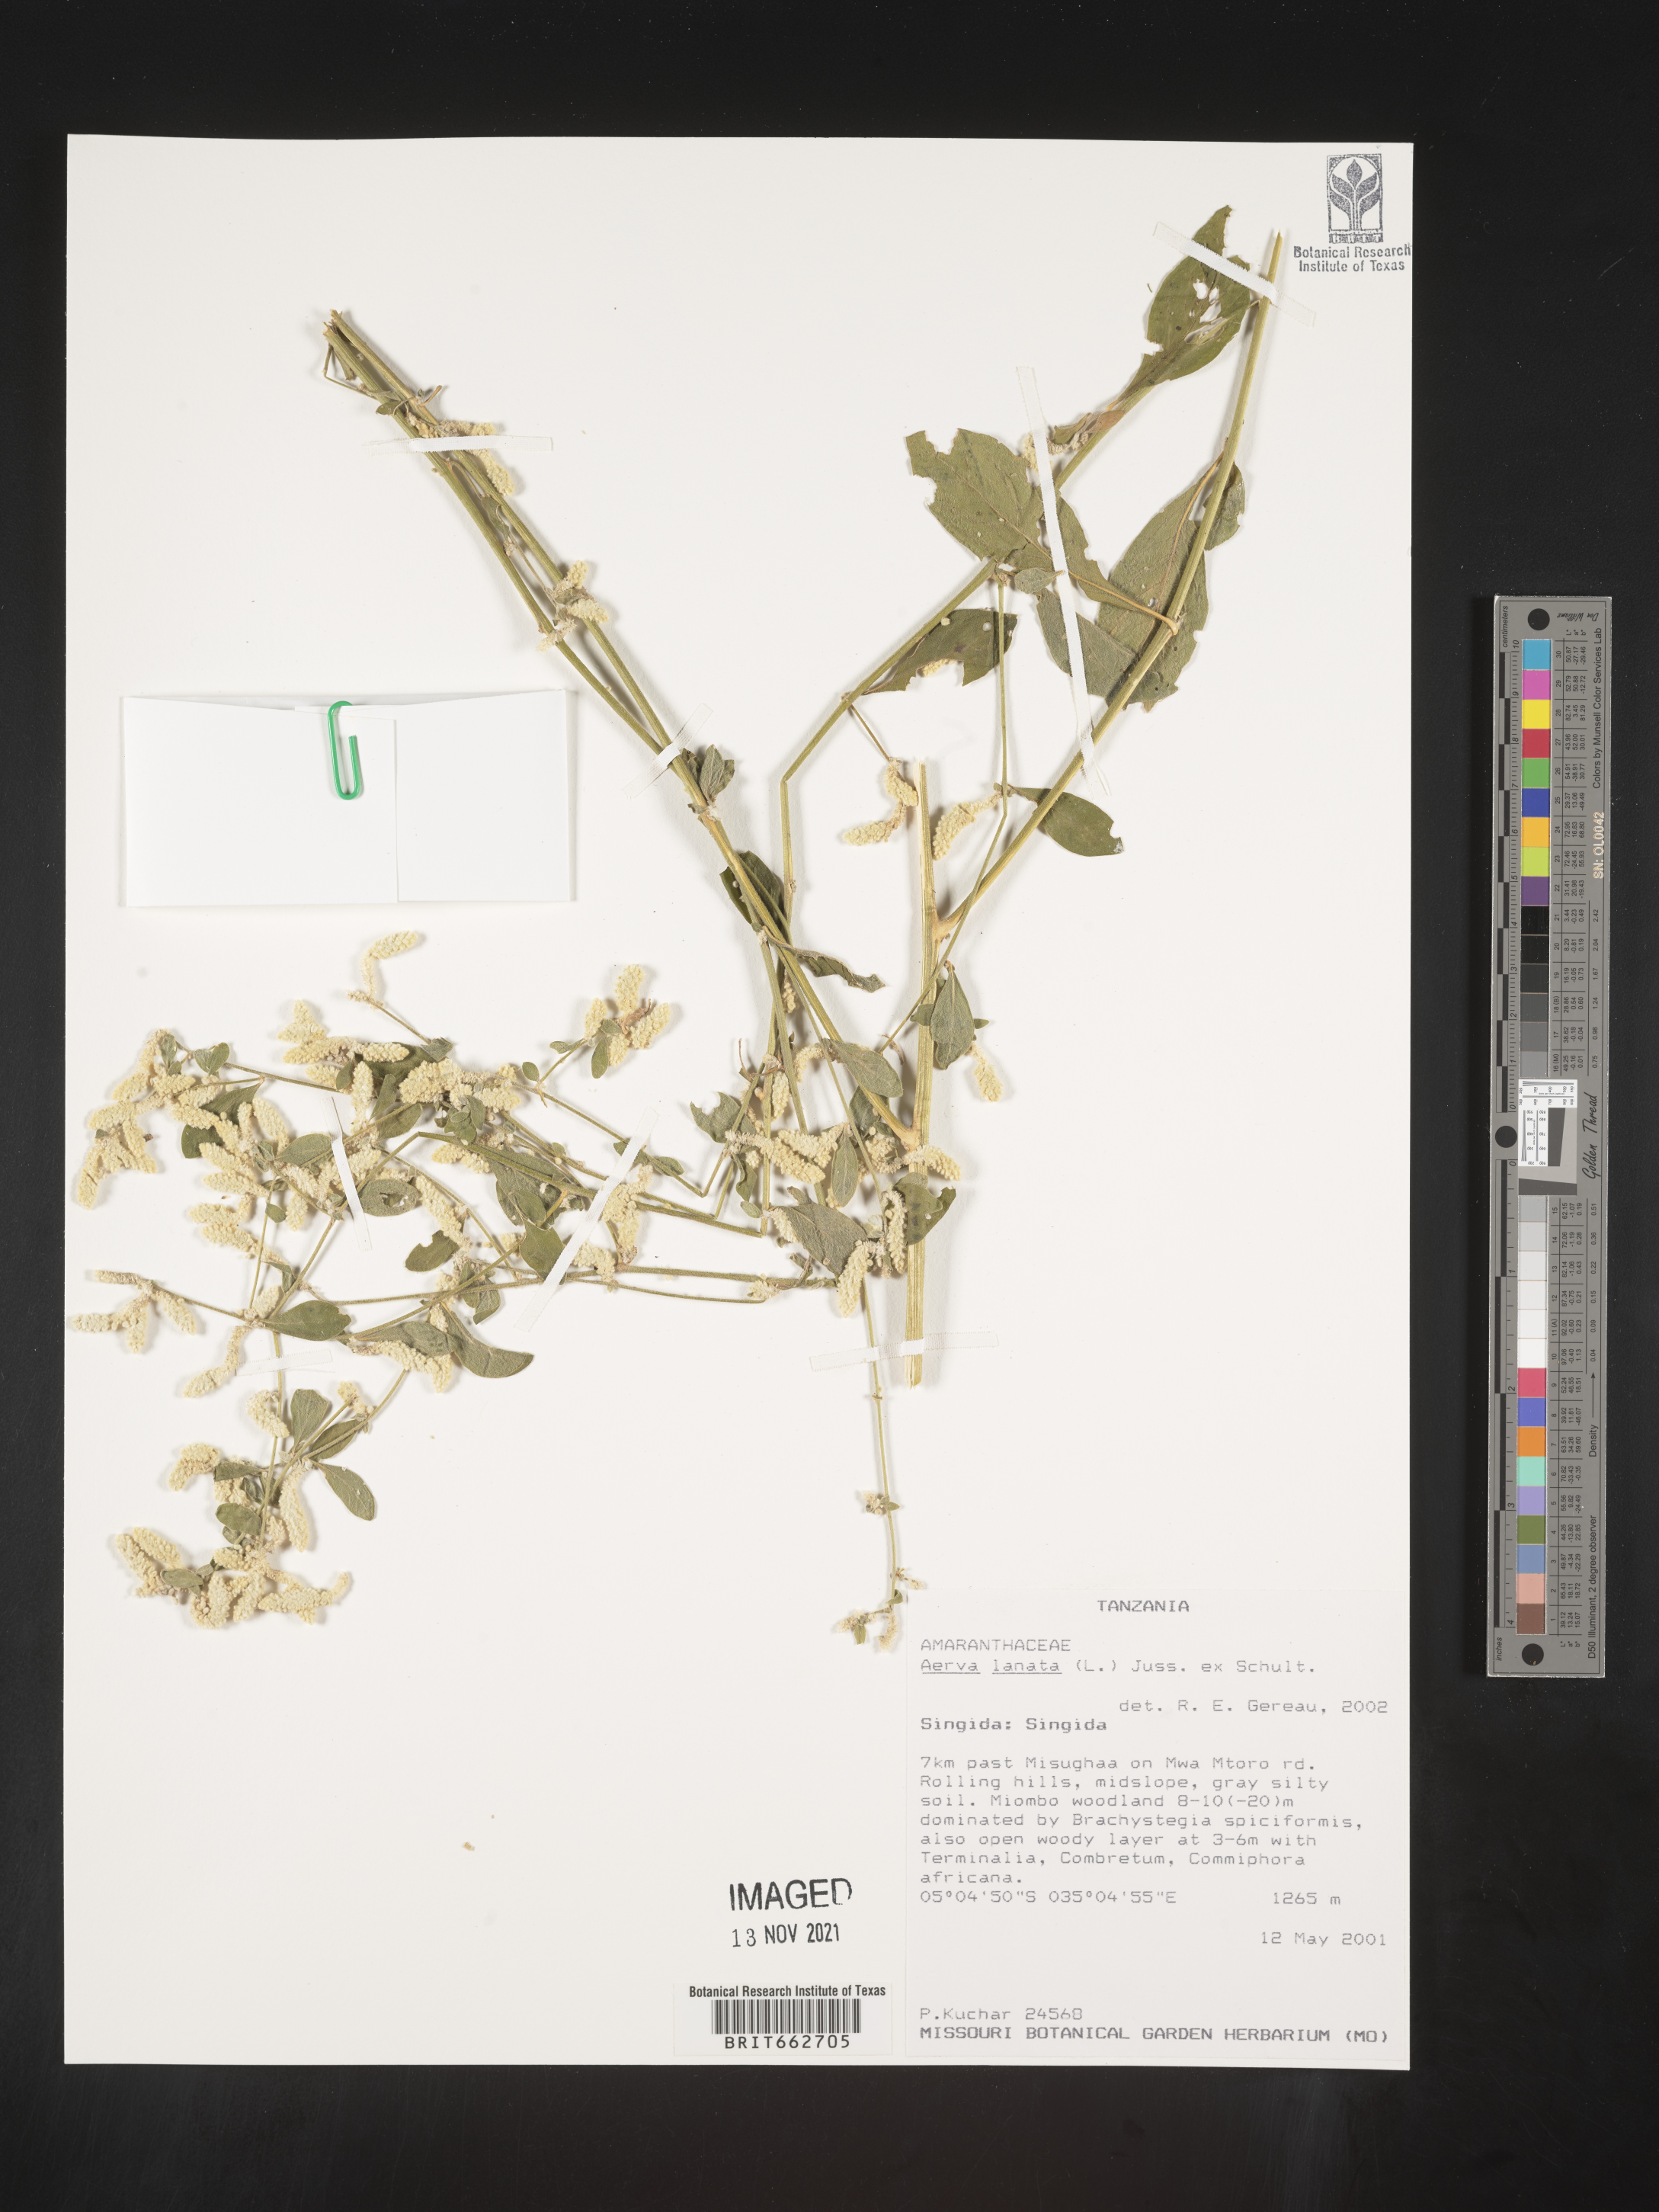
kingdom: Plantae
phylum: Tracheophyta
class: Magnoliopsida
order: Caryophyllales
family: Amaranthaceae
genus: Aerva
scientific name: Aerva
